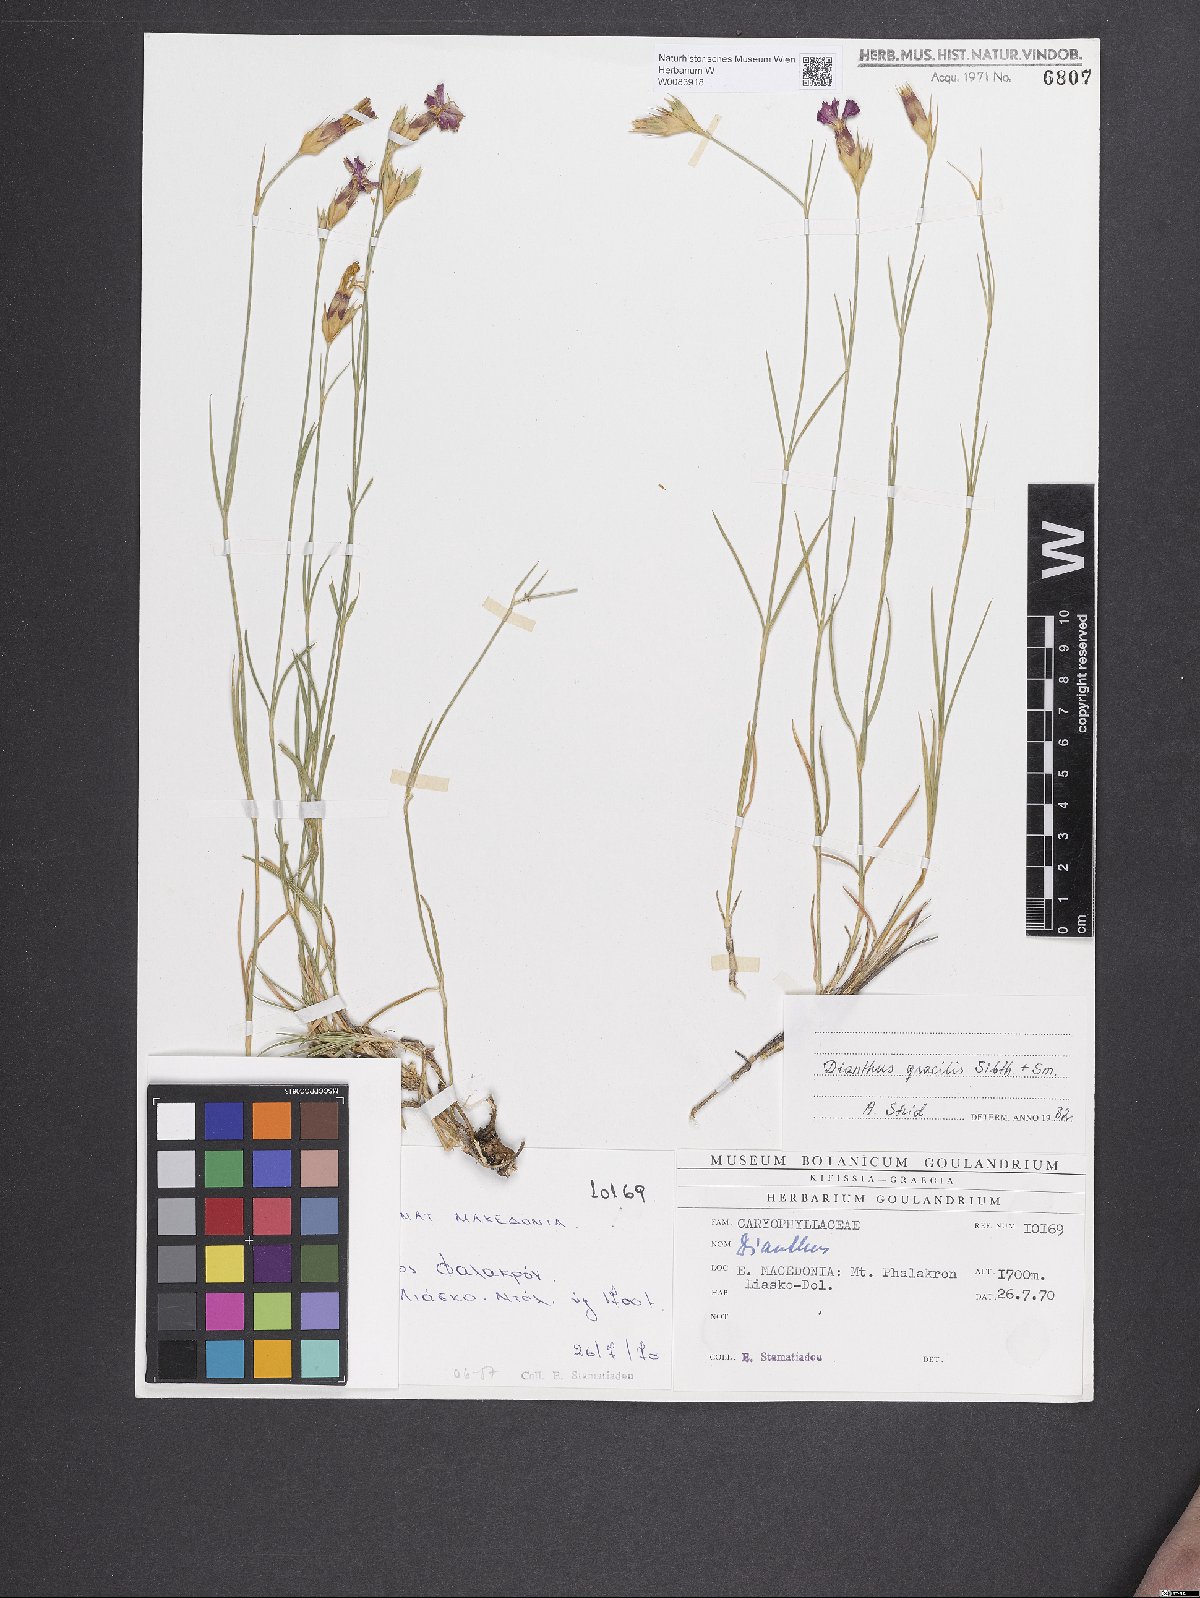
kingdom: Plantae
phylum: Tracheophyta
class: Magnoliopsida
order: Caryophyllales
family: Caryophyllaceae
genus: Dianthus
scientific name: Dianthus gracilis
